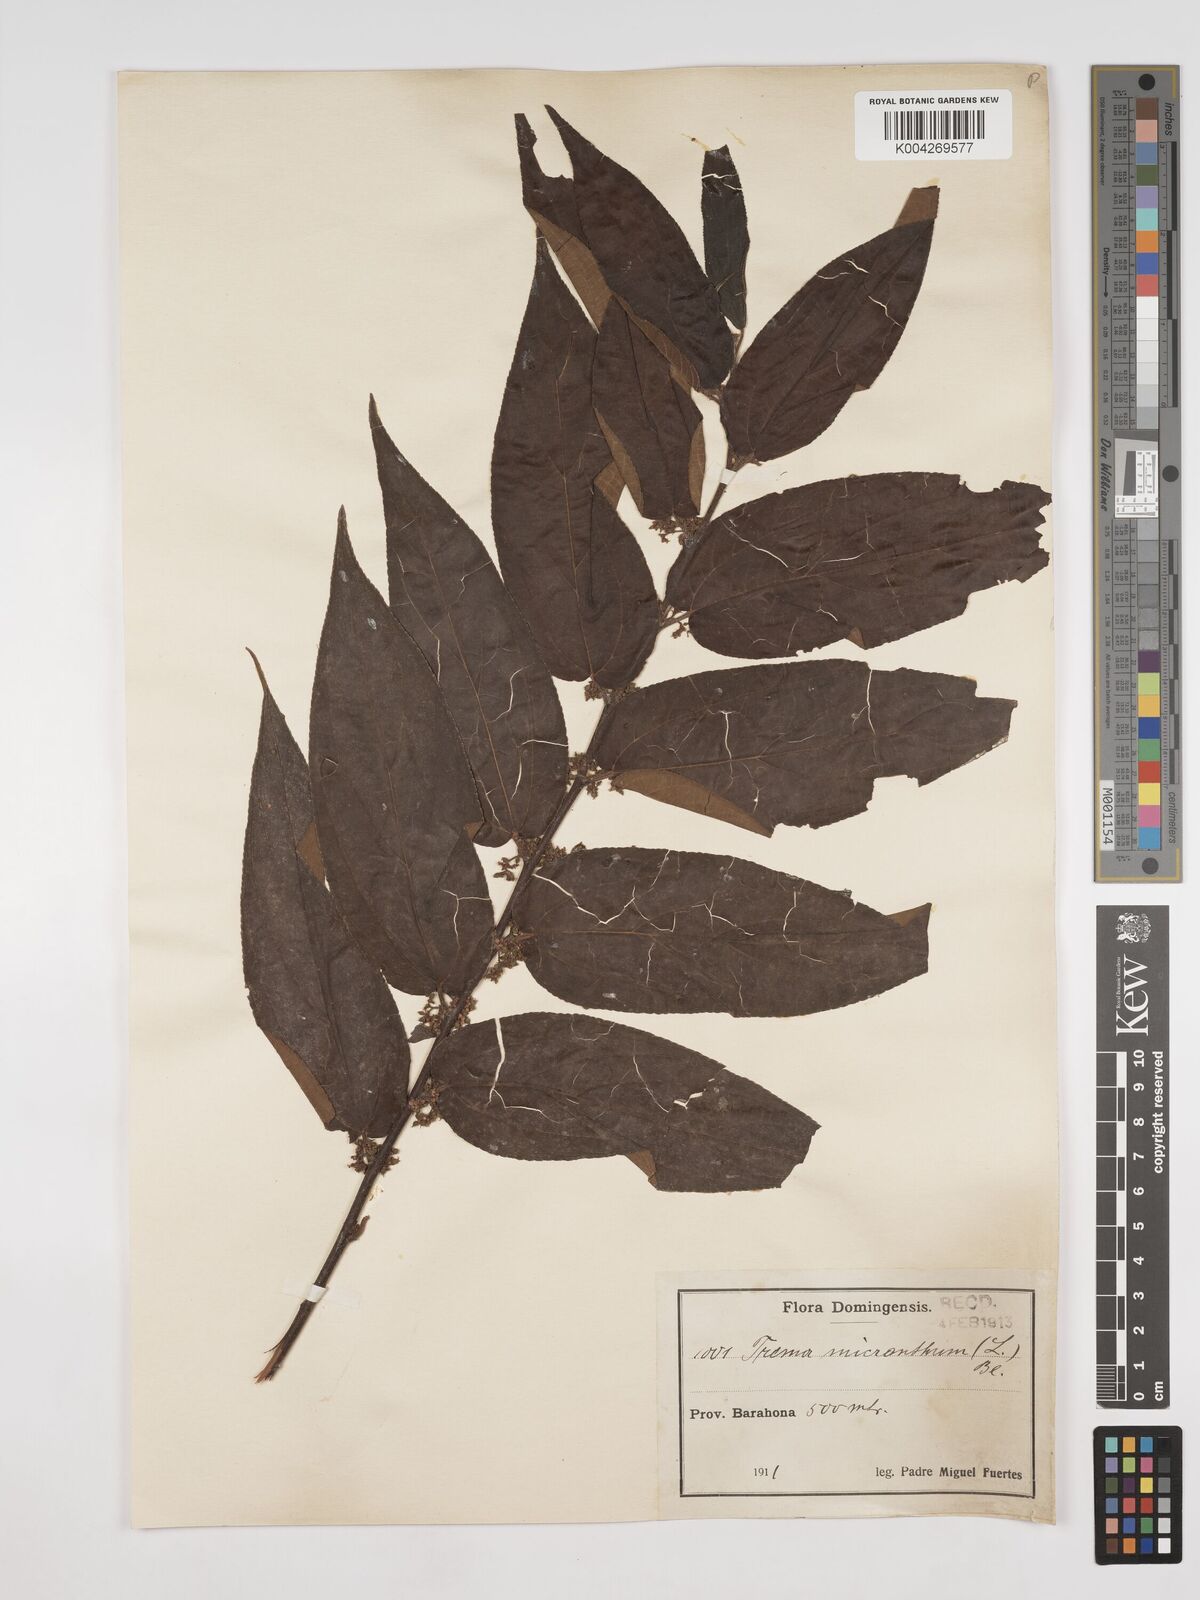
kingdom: Plantae
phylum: Tracheophyta
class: Magnoliopsida
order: Rosales
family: Cannabaceae
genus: Trema
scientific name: Trema micranthum
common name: Jamaican nettletree
